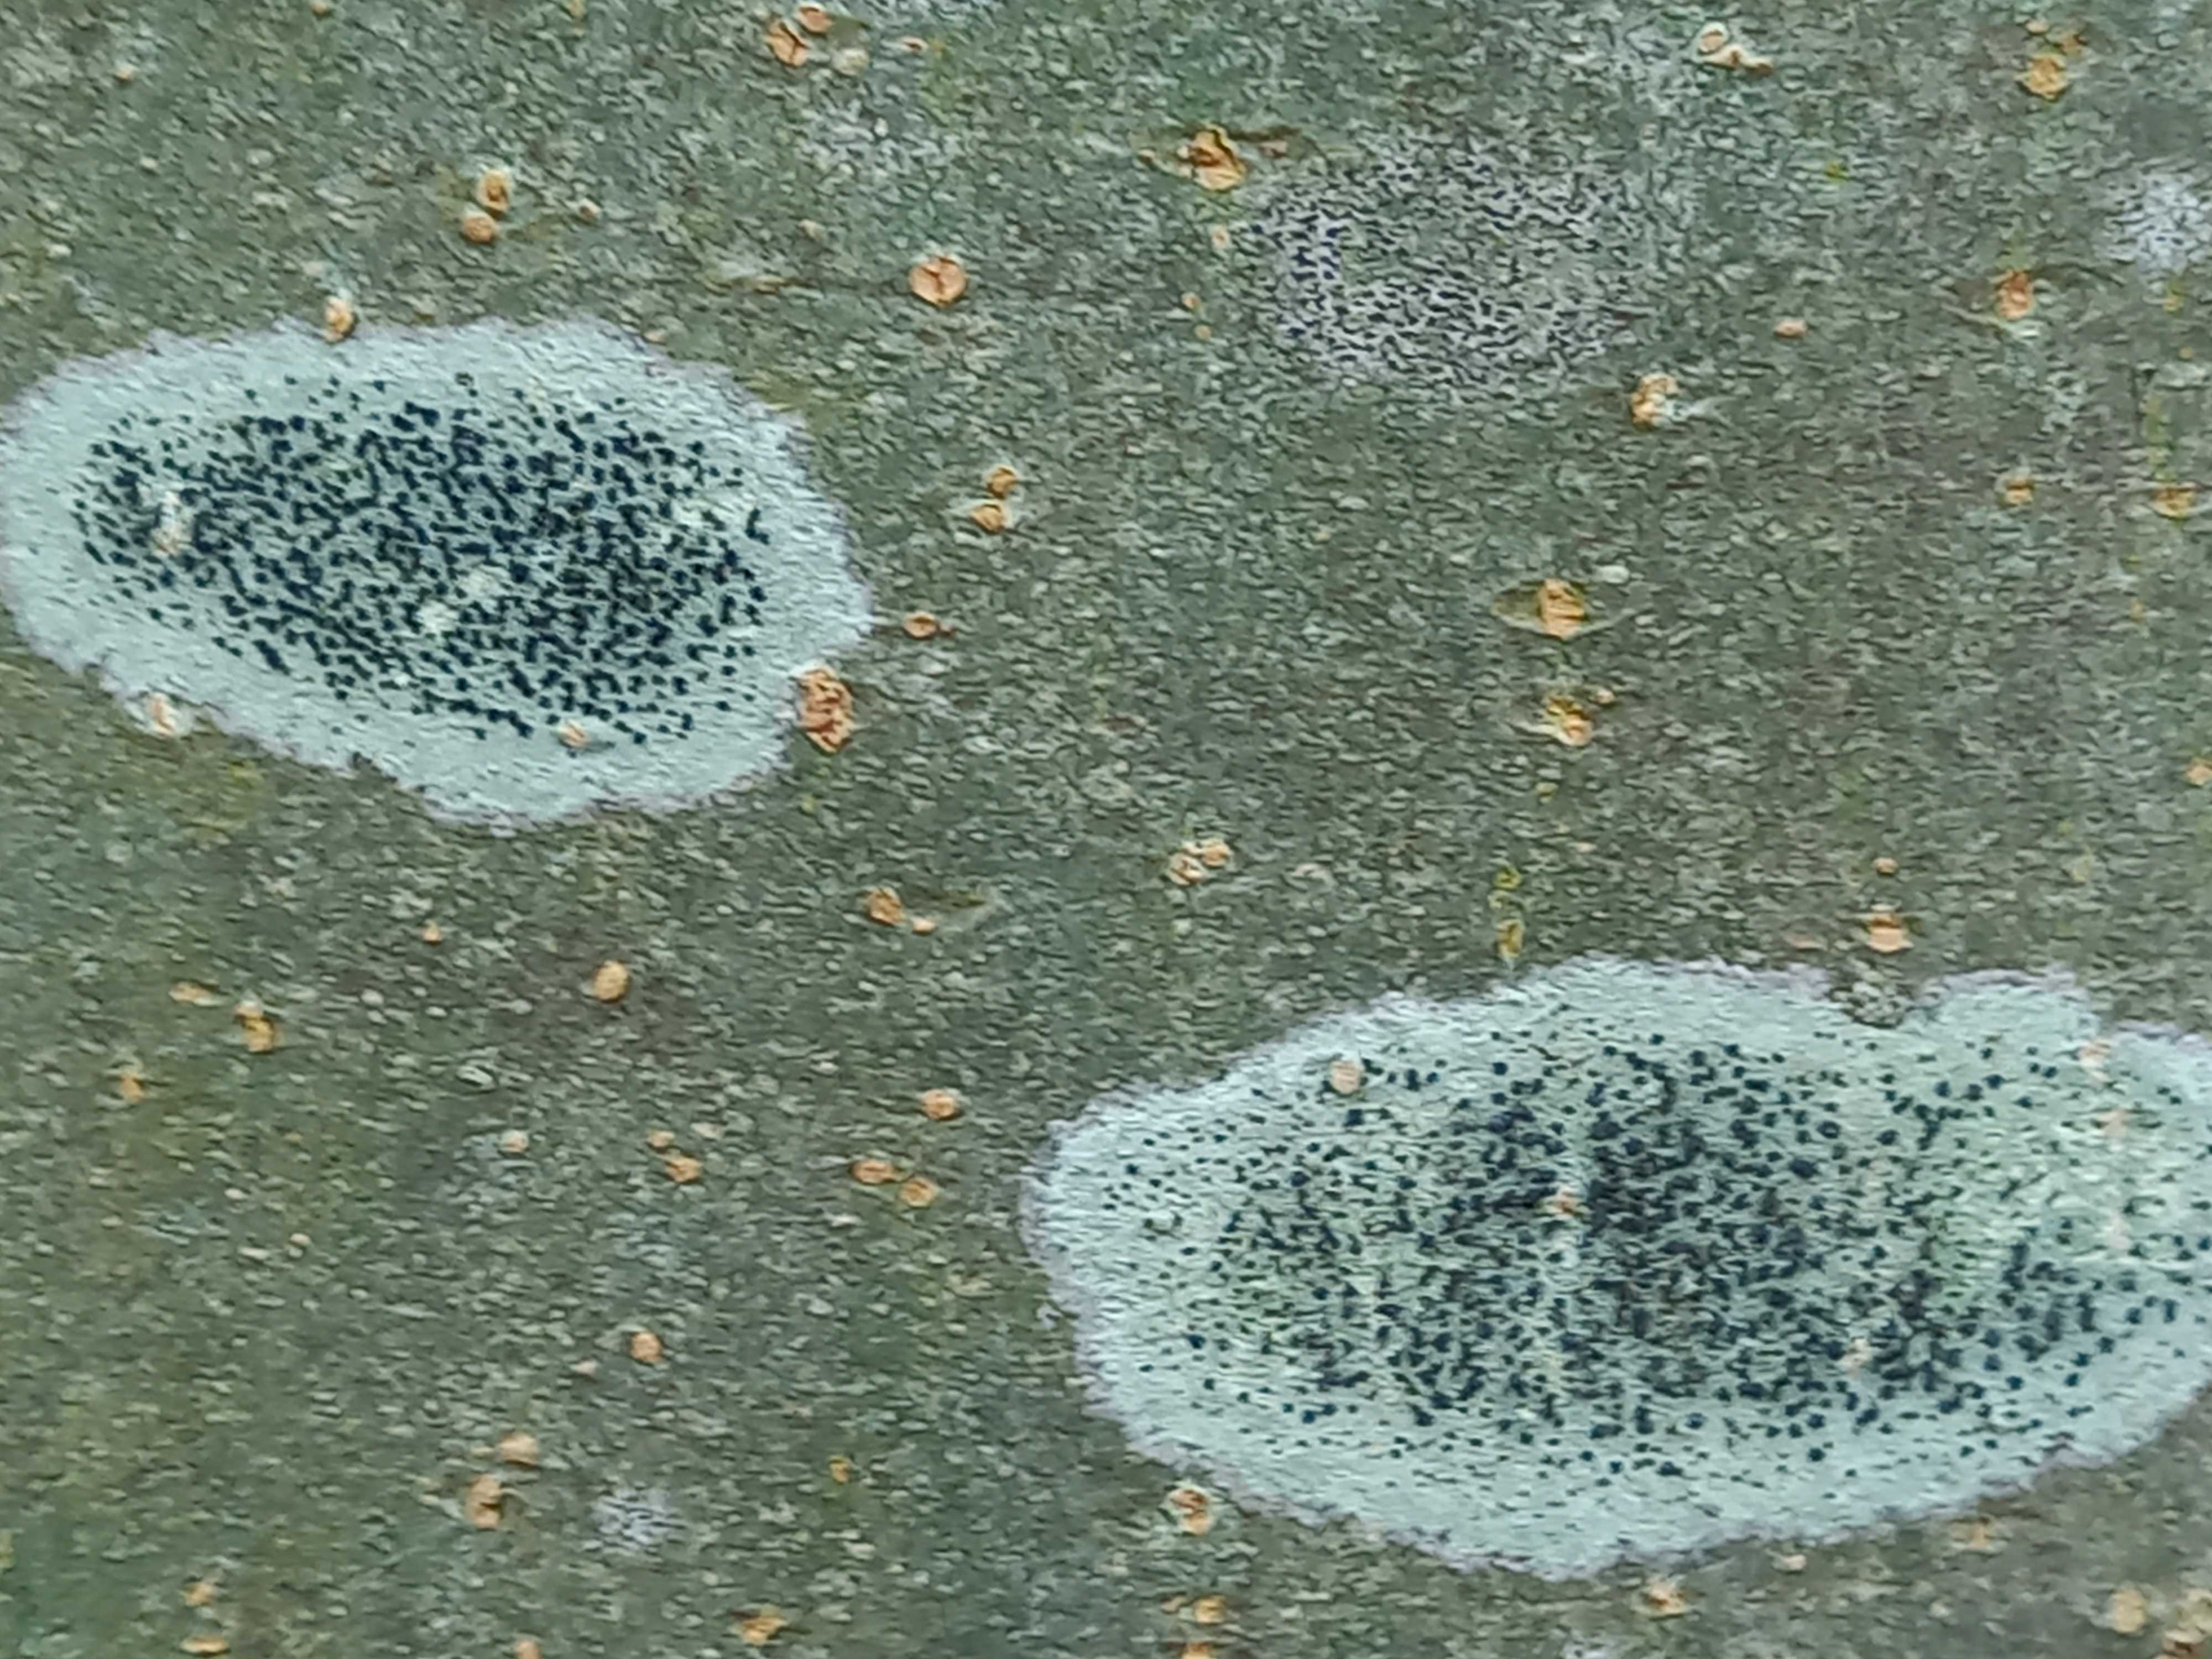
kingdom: Fungi
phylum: Ascomycota
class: Lecanoromycetes
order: Lecanorales
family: Lecanoraceae
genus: Lecidella
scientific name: Lecidella elaeochroma
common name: grågrøn skivelav
